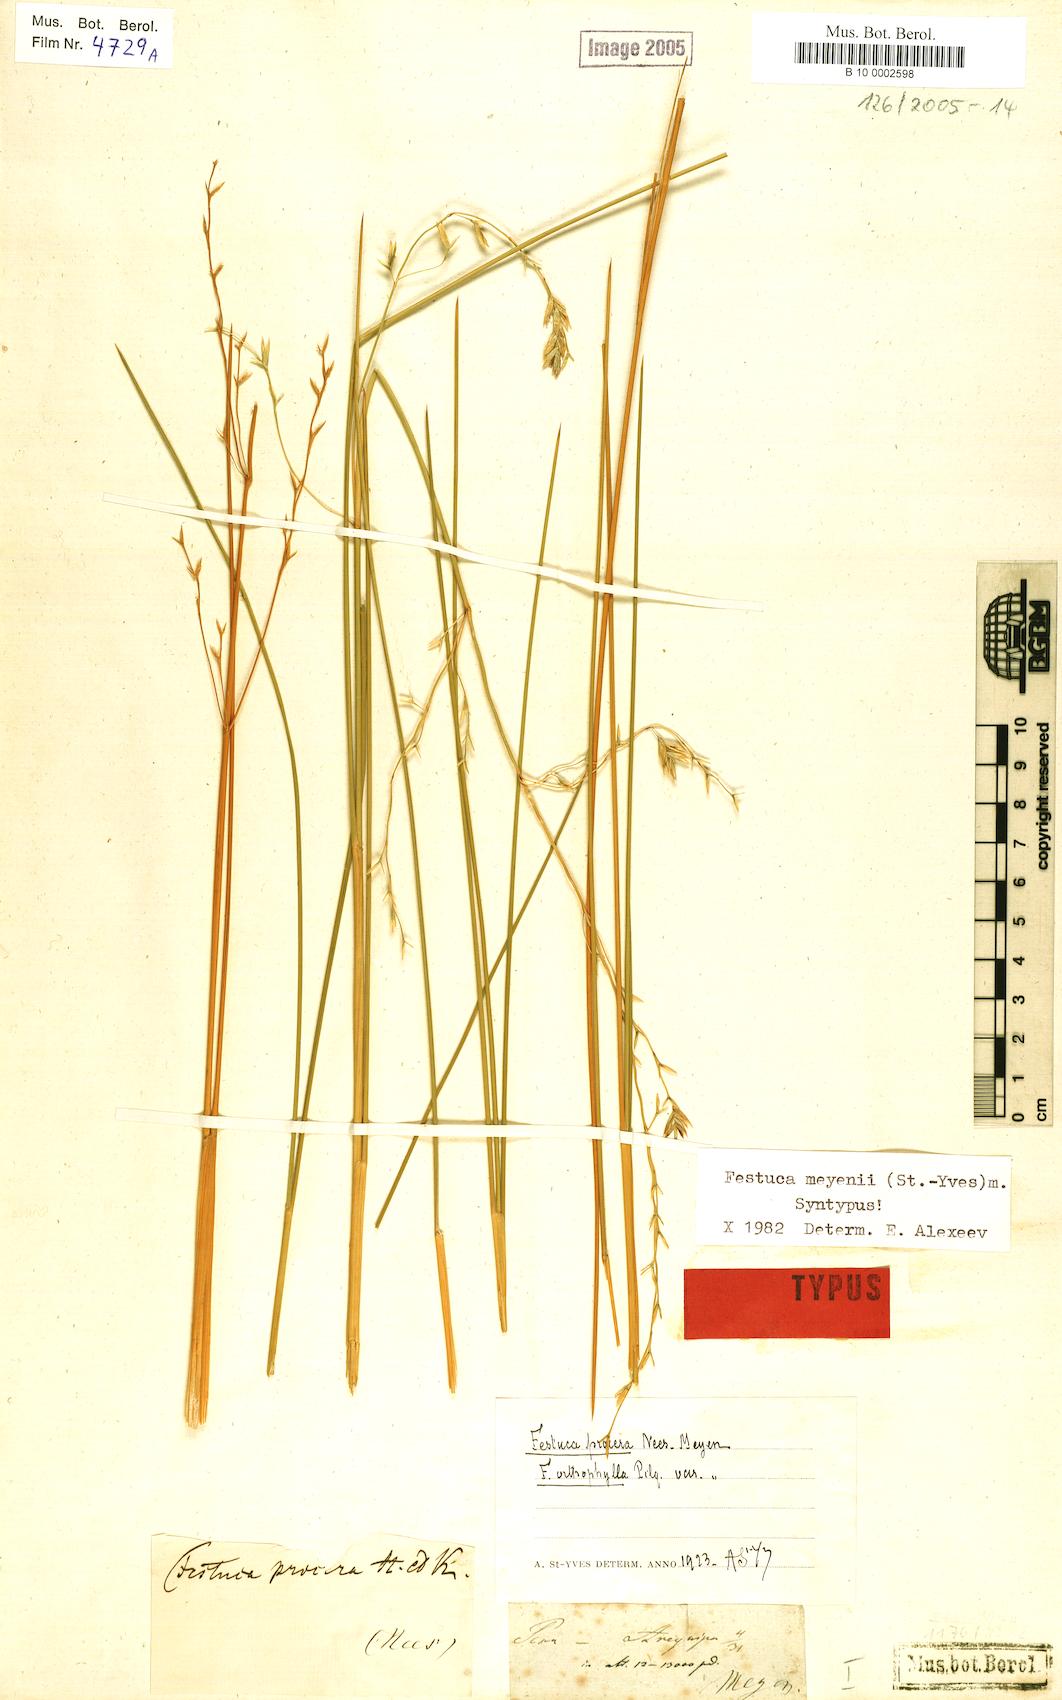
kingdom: Plantae
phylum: Tracheophyta
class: Liliopsida
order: Poales
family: Poaceae
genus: Festuca
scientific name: Festuca chrysophylla
